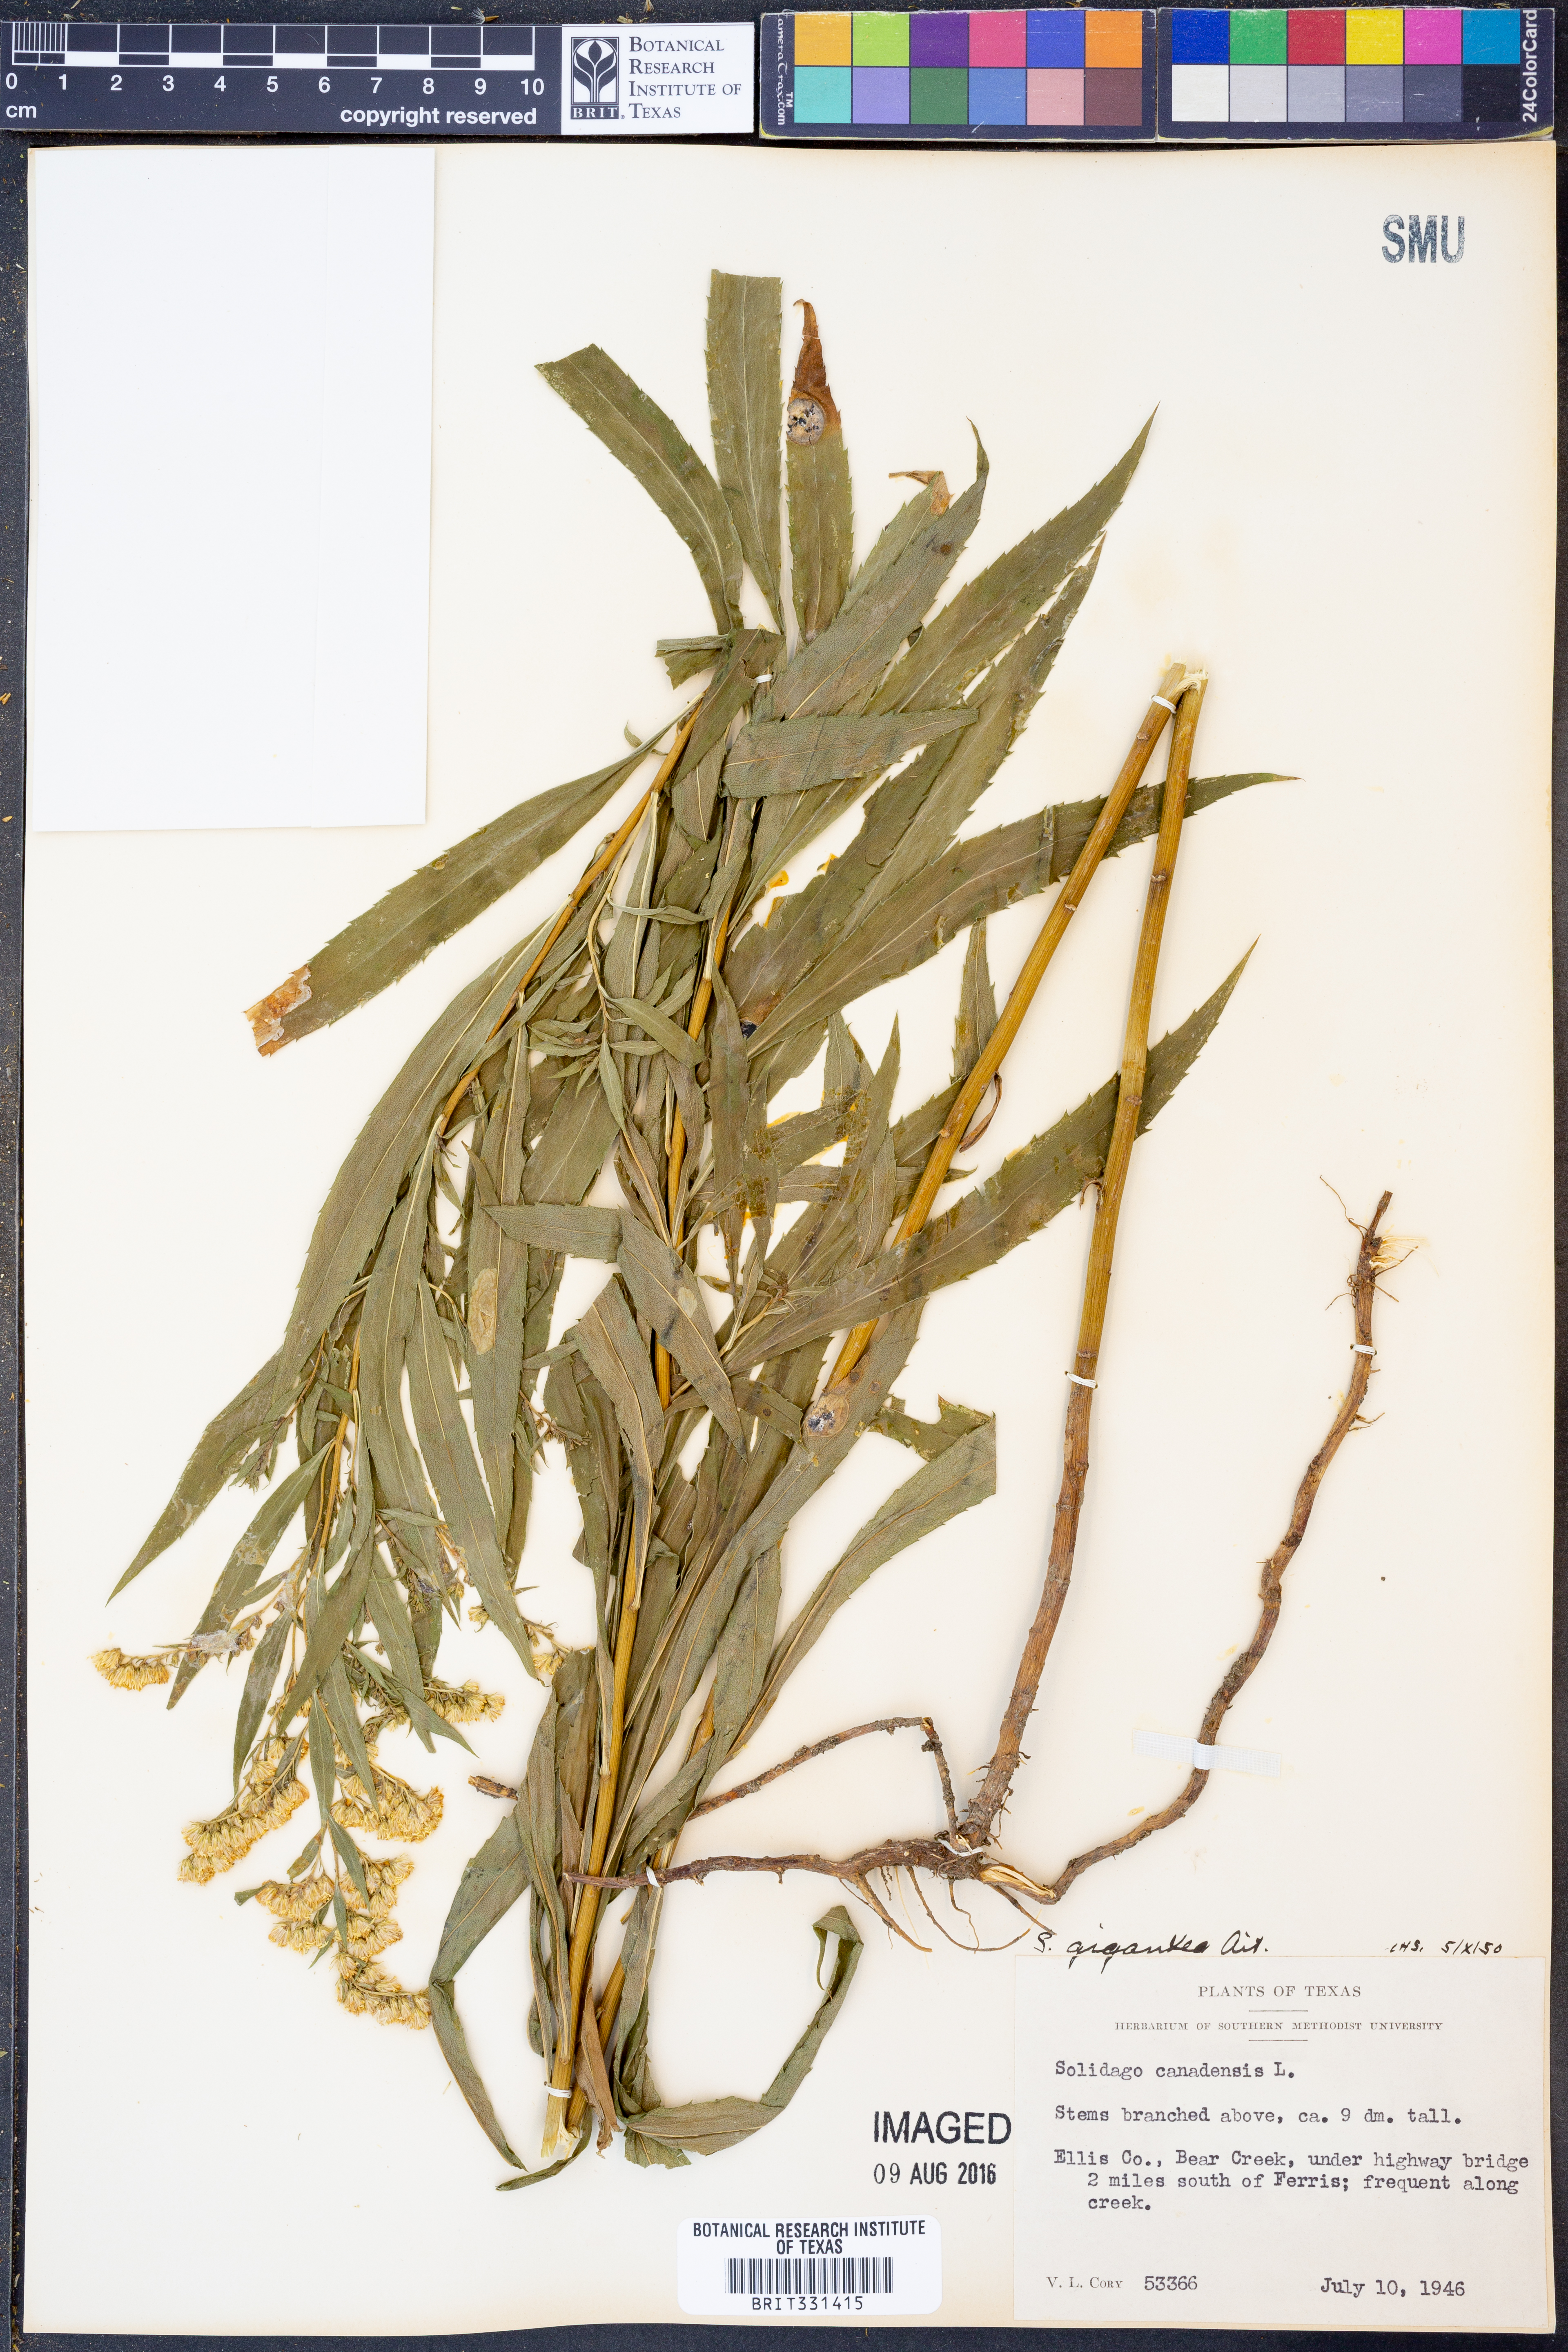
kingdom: Plantae
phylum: Tracheophyta
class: Magnoliopsida
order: Asterales
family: Asteraceae
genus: Solidago
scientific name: Solidago gigantea
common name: Giant goldenrod
